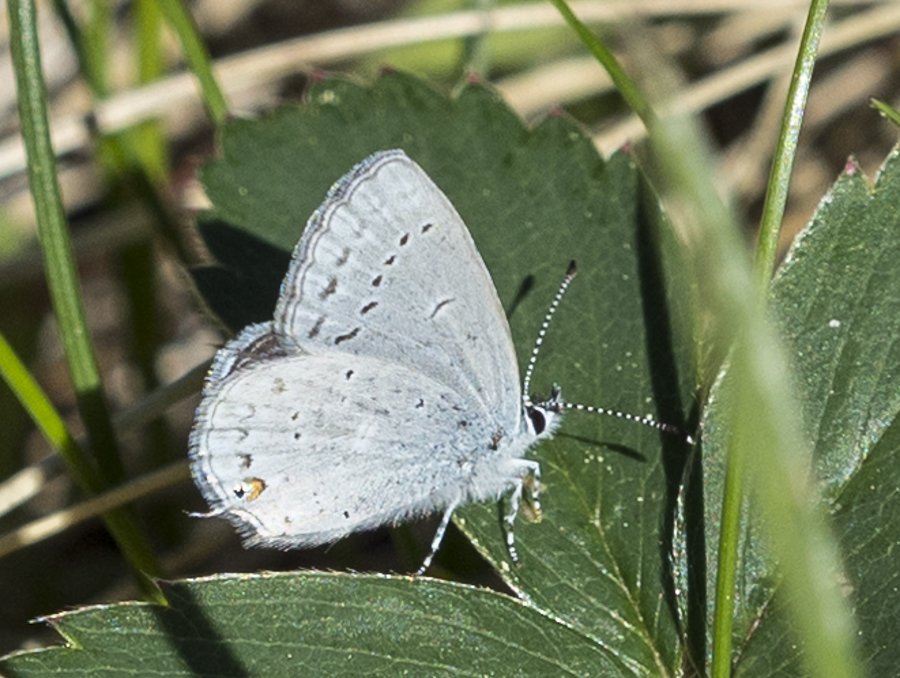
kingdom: Animalia
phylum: Arthropoda
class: Insecta
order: Lepidoptera
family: Lycaenidae
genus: Elkalyce
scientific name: Elkalyce amyntula
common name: Western Tailed-Blue
